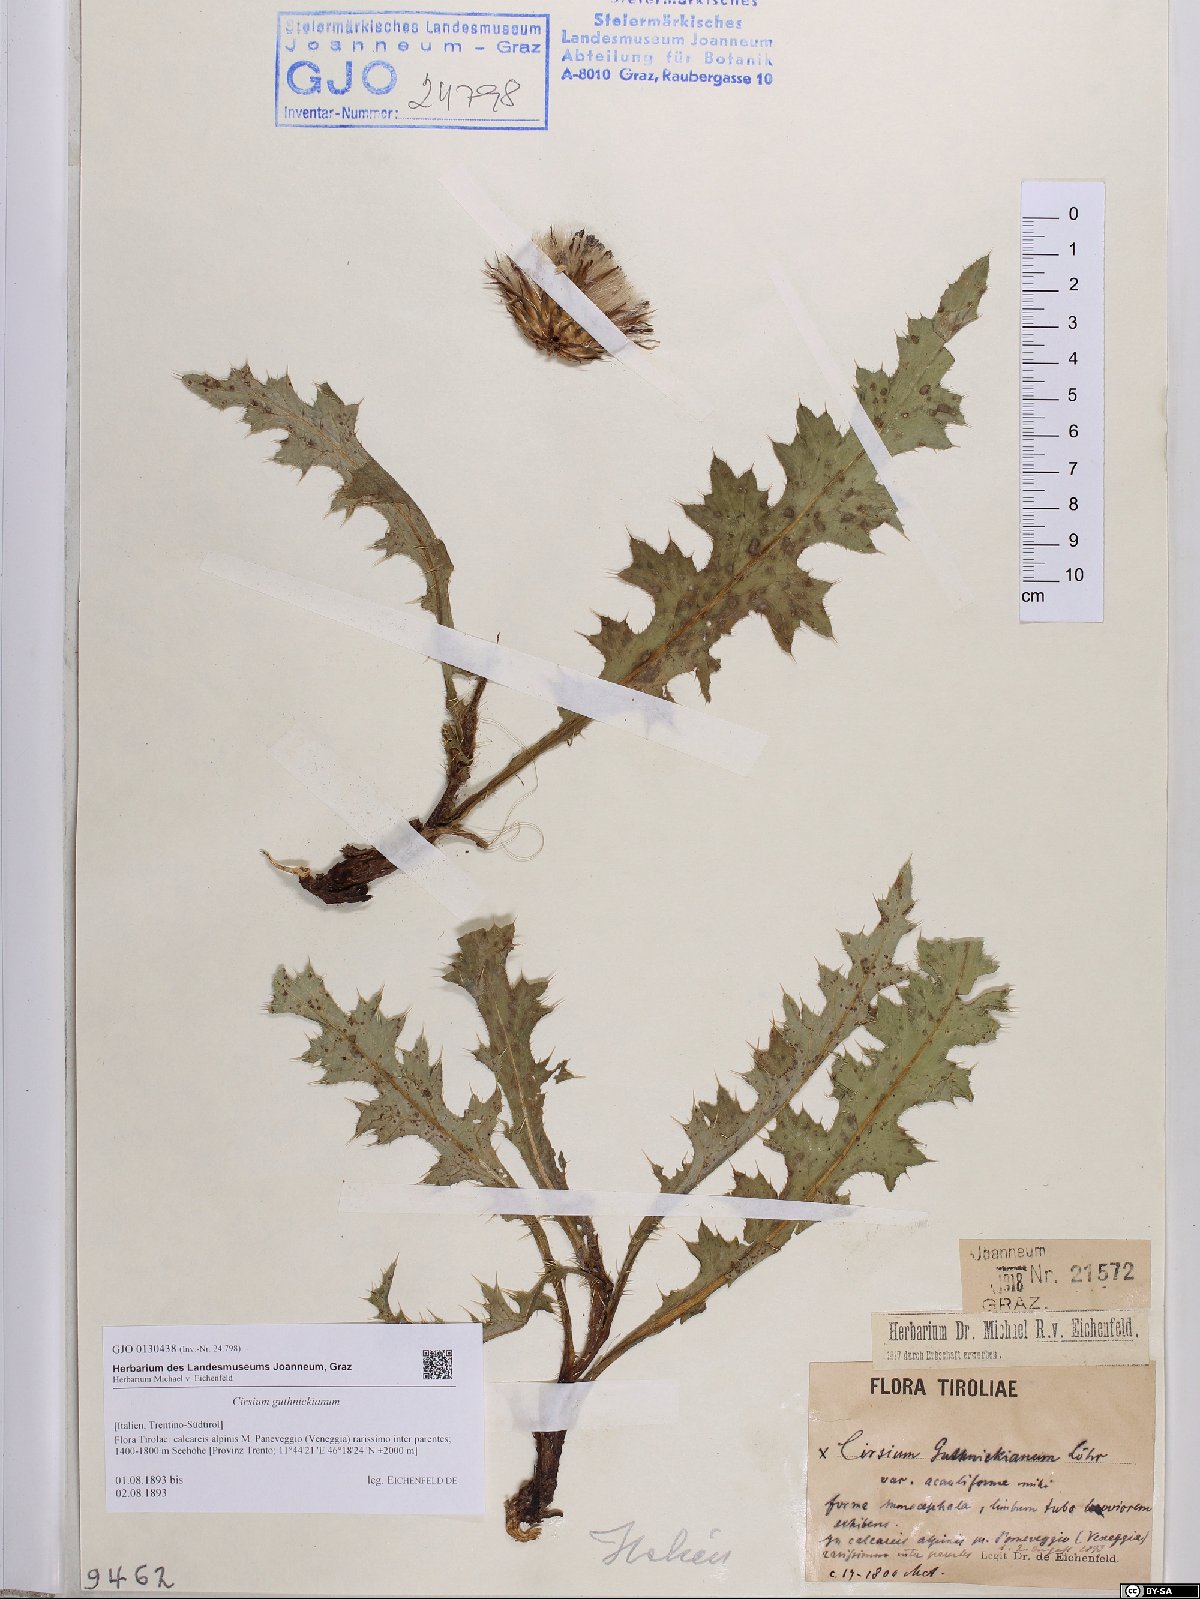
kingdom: Plantae
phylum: Tracheophyta
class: Magnoliopsida
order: Asterales
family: Asteraceae
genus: Cirsium
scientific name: Cirsium guthnickianum
